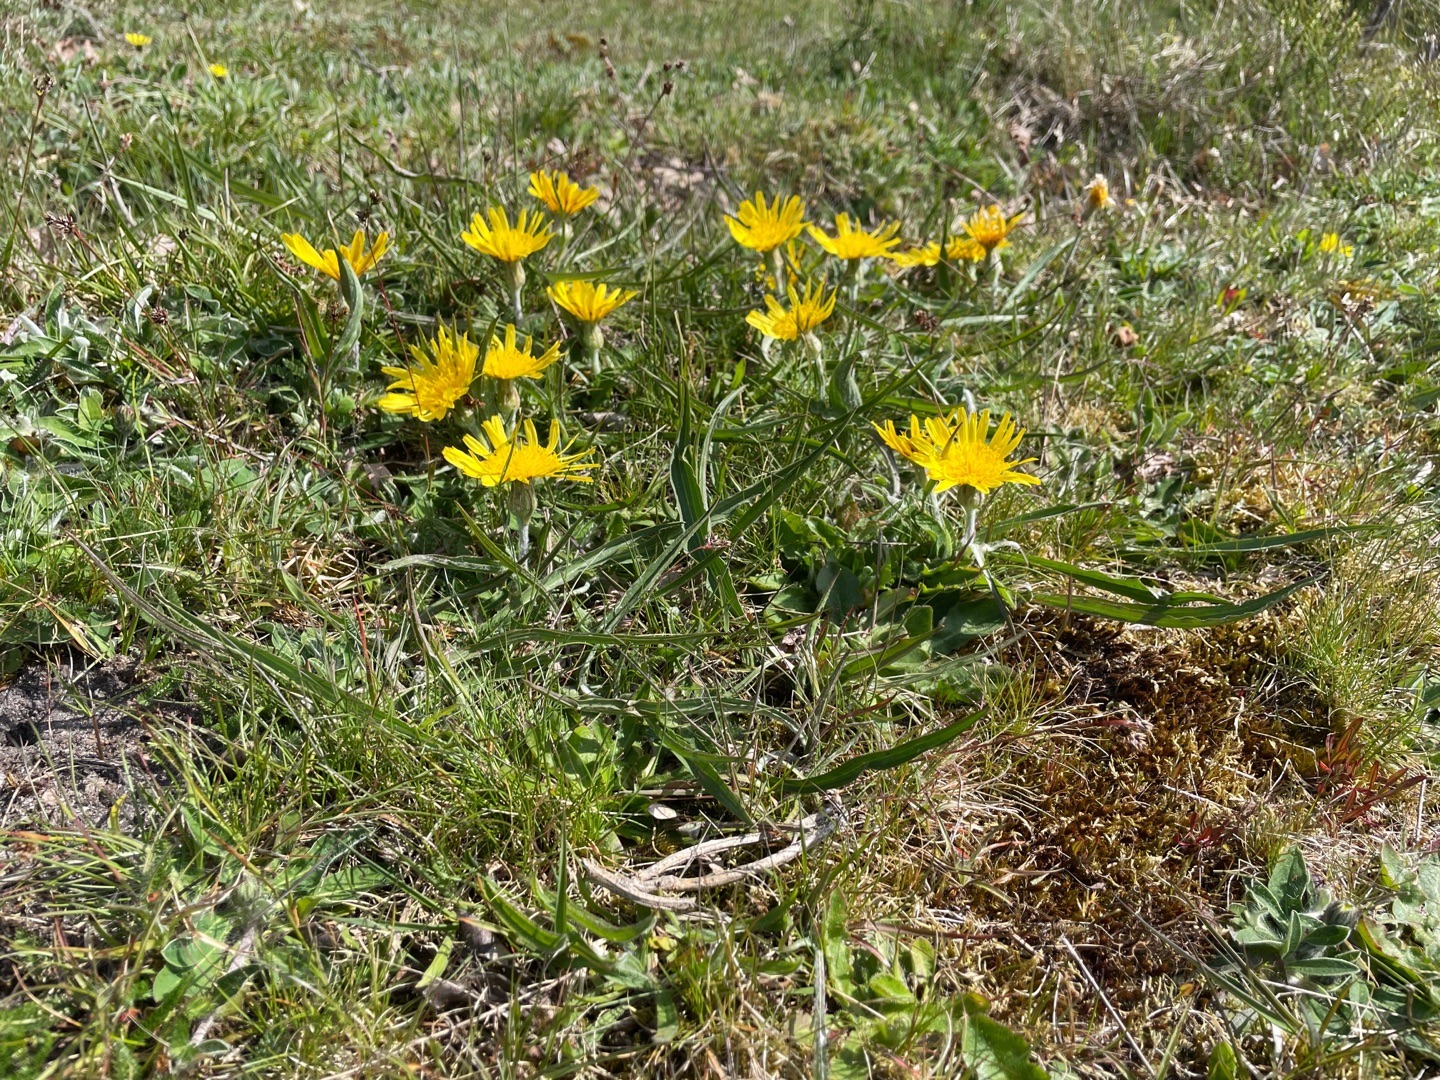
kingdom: Plantae
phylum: Tracheophyta
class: Magnoliopsida
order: Asterales
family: Asteraceae
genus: Scorzonera
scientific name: Scorzonera humilis
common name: Lav skorsoner
